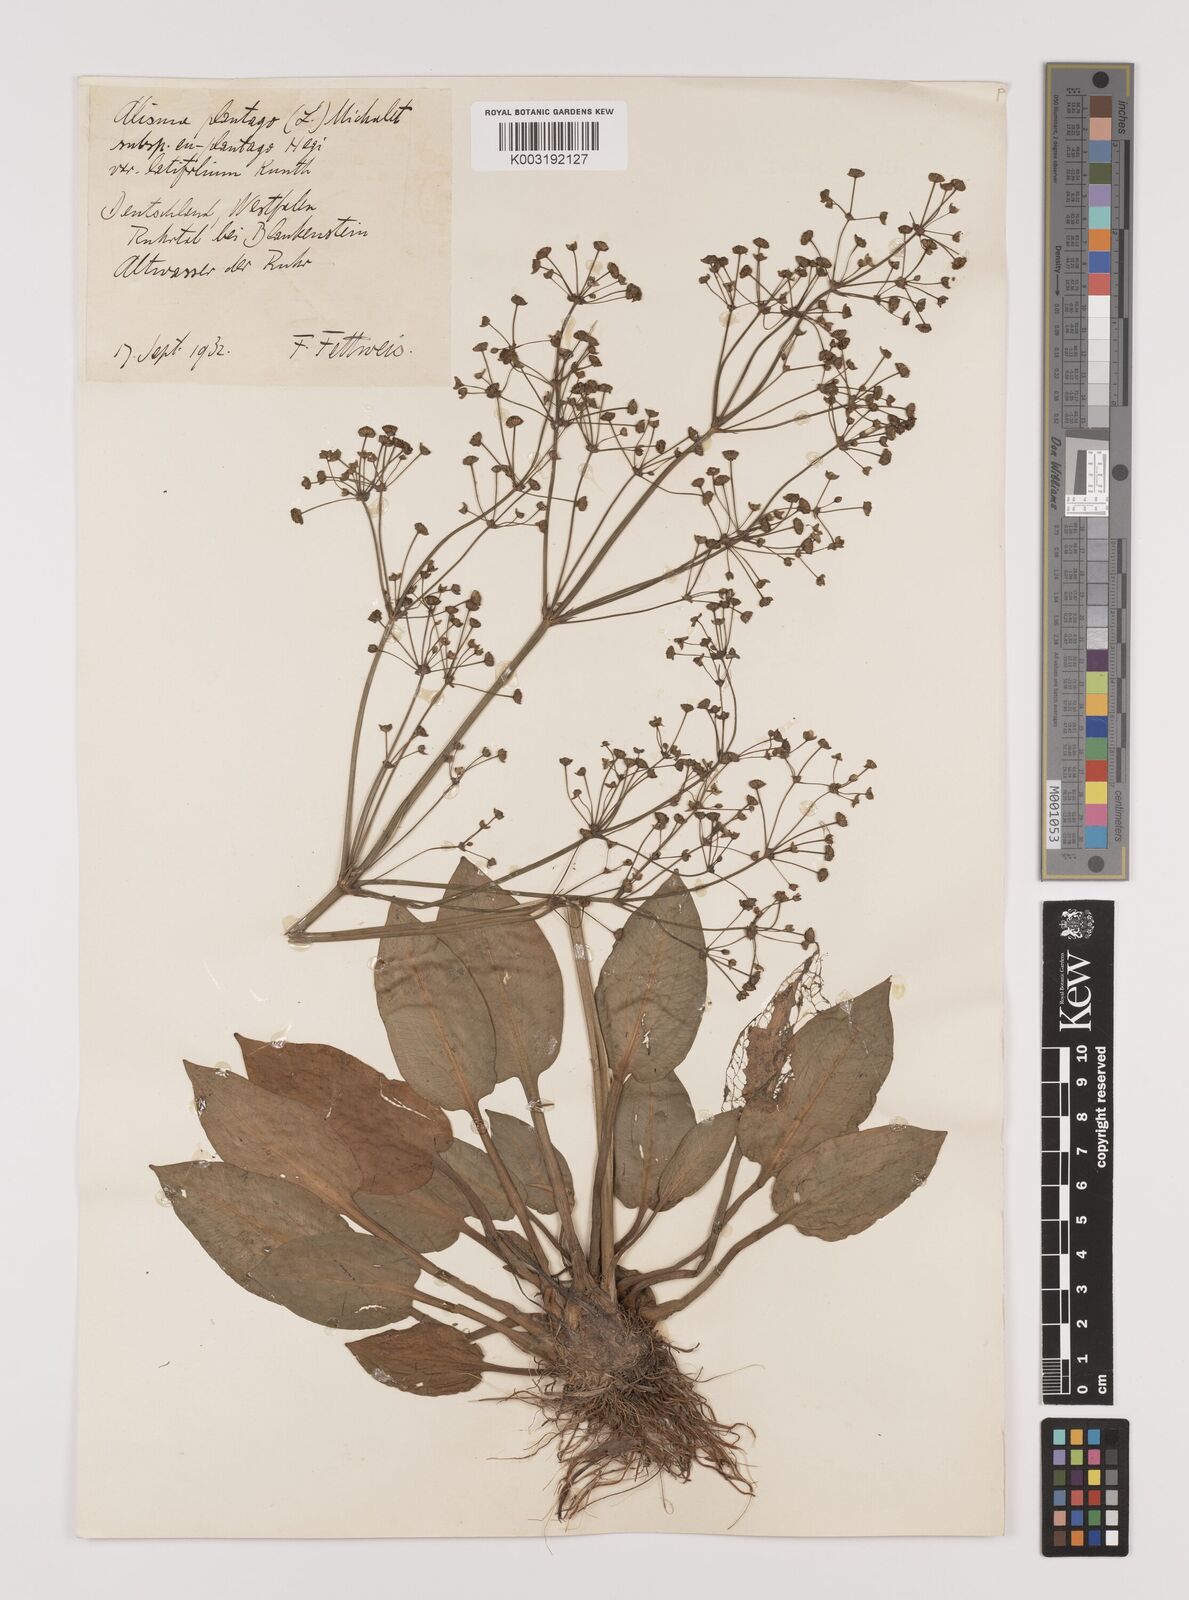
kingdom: Plantae
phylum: Tracheophyta
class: Liliopsida
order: Alismatales
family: Alismataceae
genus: Alisma
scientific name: Alisma plantago-aquatica
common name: Water-plantain
